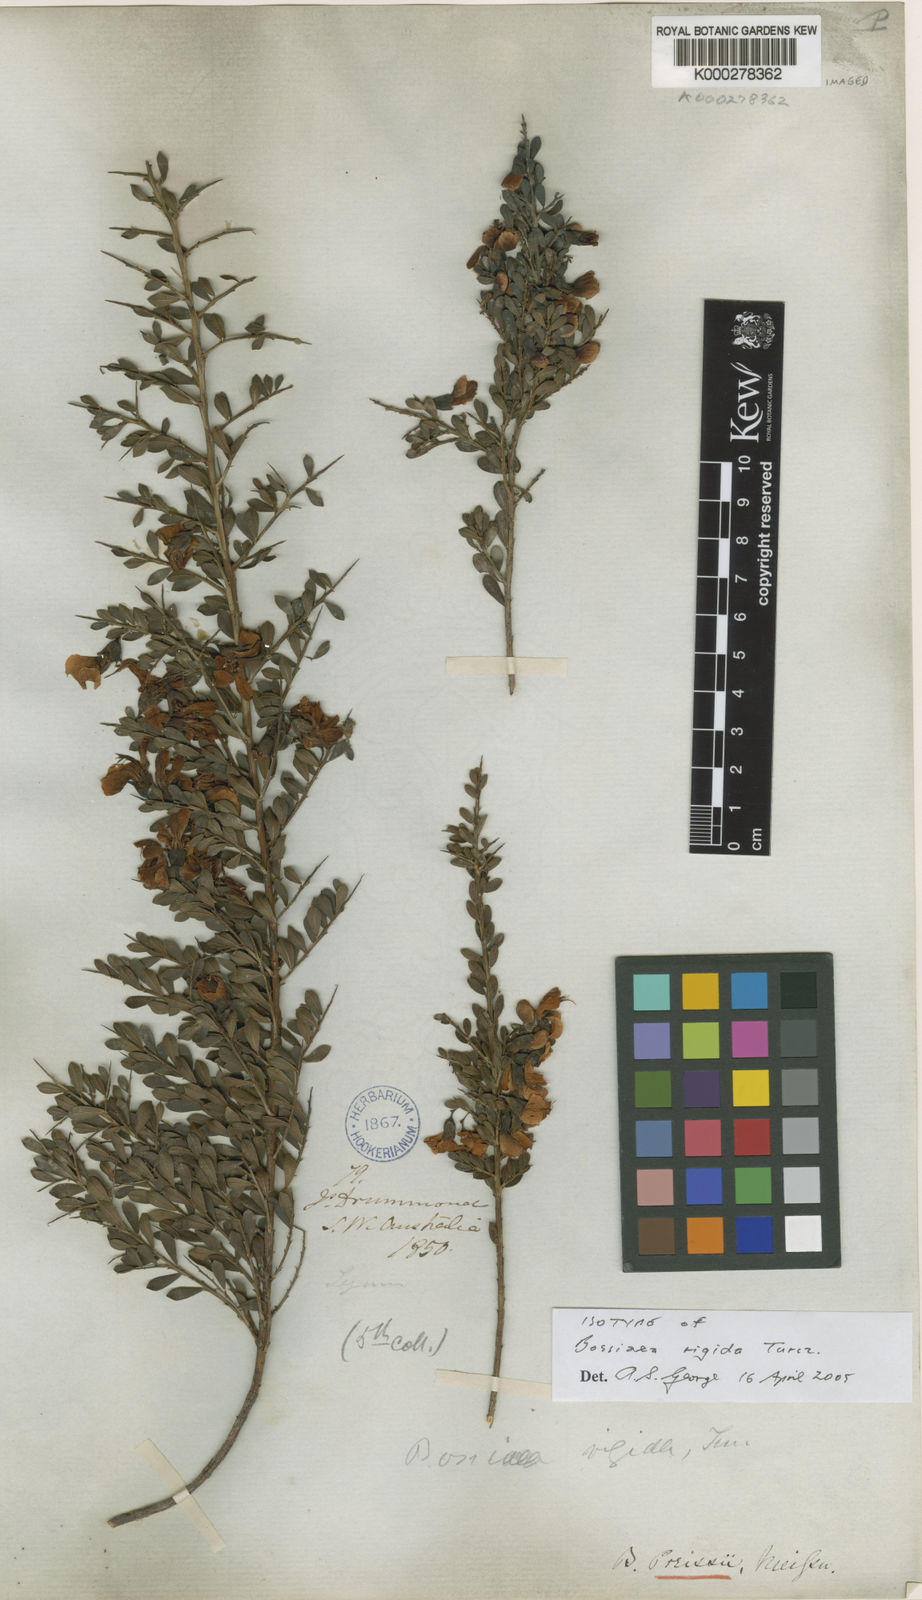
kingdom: Plantae
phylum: Tracheophyta
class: Magnoliopsida
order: Fabales
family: Fabaceae
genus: Bossiaea
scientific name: Bossiaea preissii
